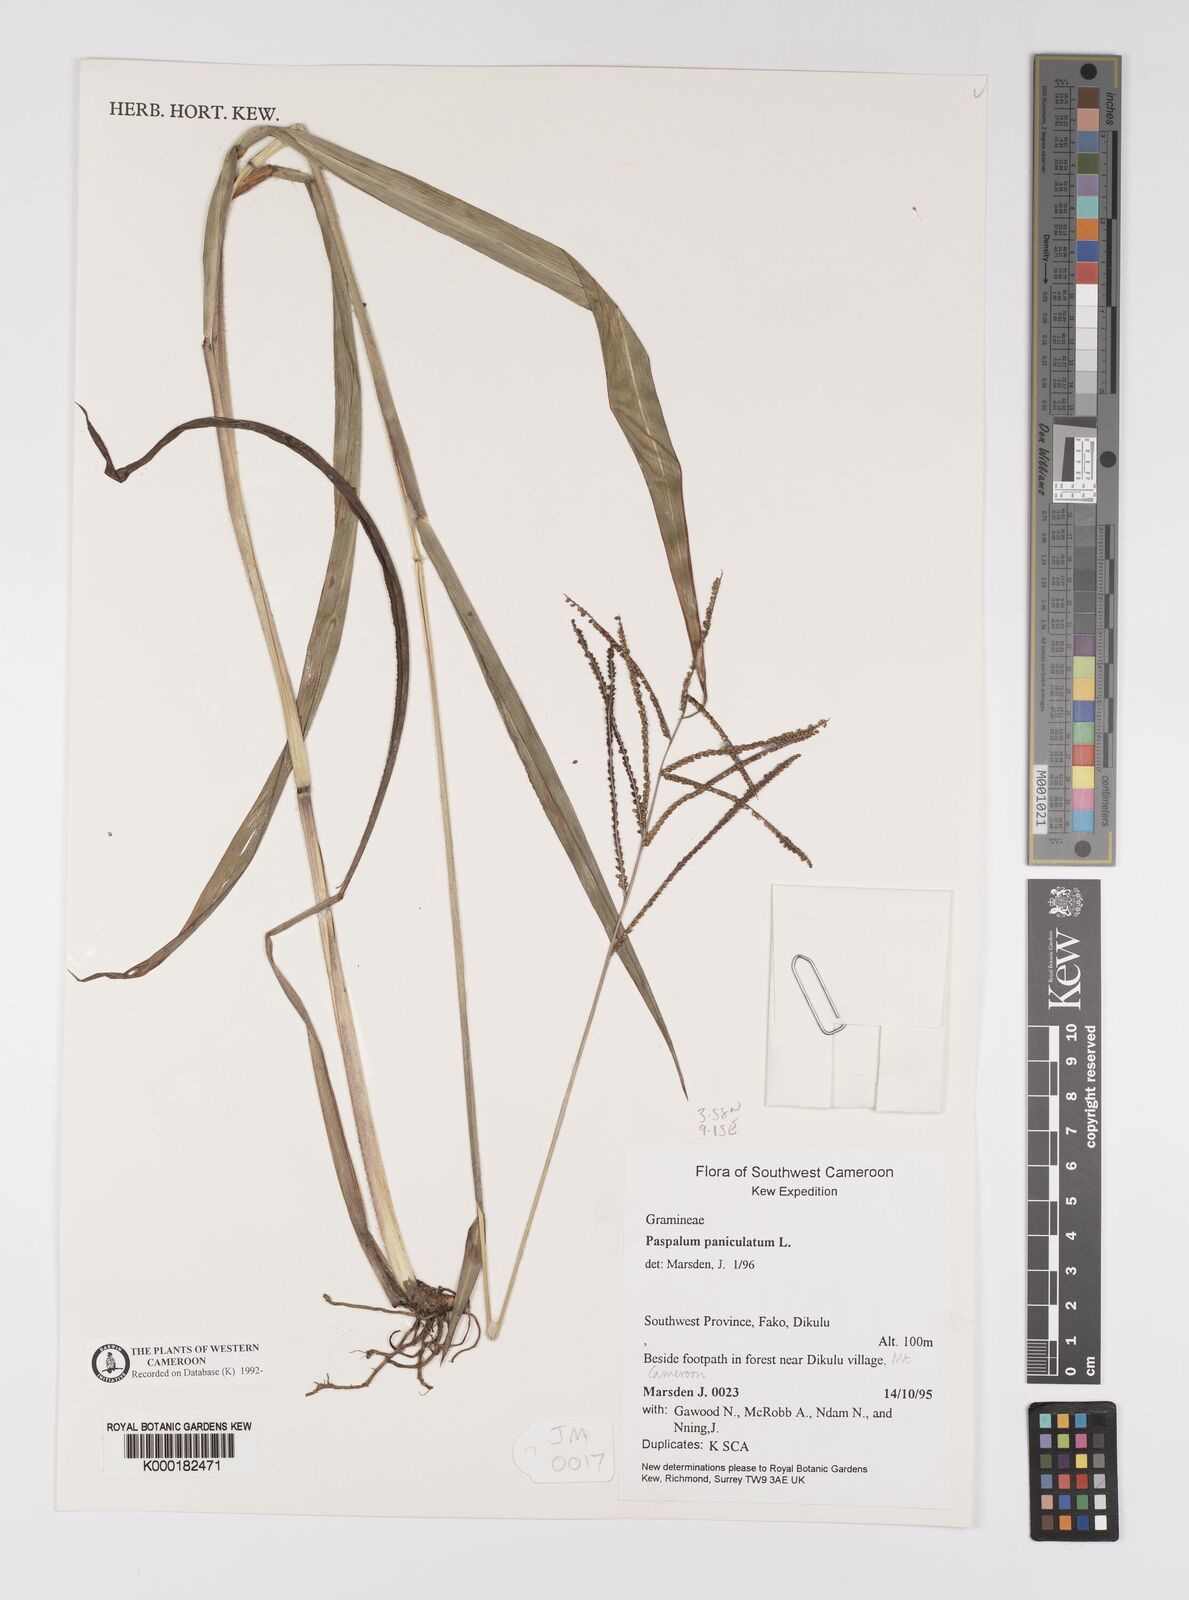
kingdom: Plantae
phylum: Tracheophyta
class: Liliopsida
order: Poales
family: Poaceae
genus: Paspalum
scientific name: Paspalum paniculatum
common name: Arrocillo
